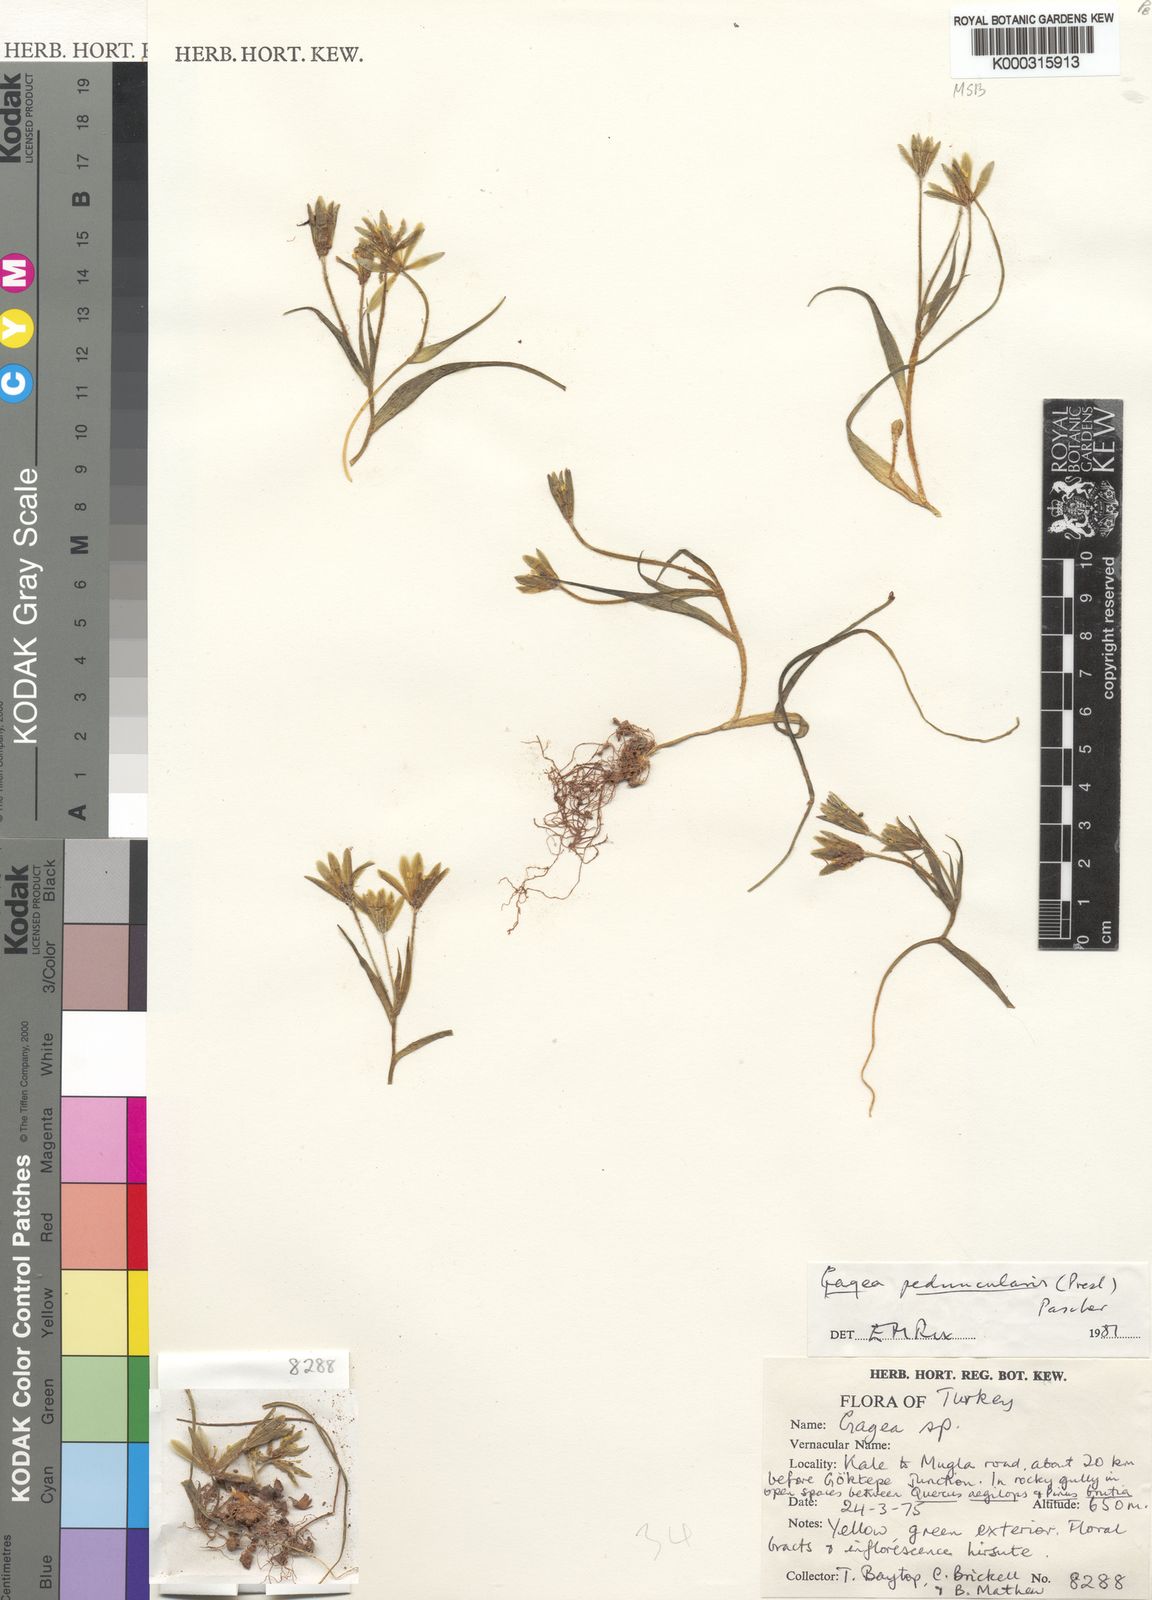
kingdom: Plantae
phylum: Tracheophyta
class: Liliopsida
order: Liliales
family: Liliaceae
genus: Gagea
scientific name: Gagea peduncularis
